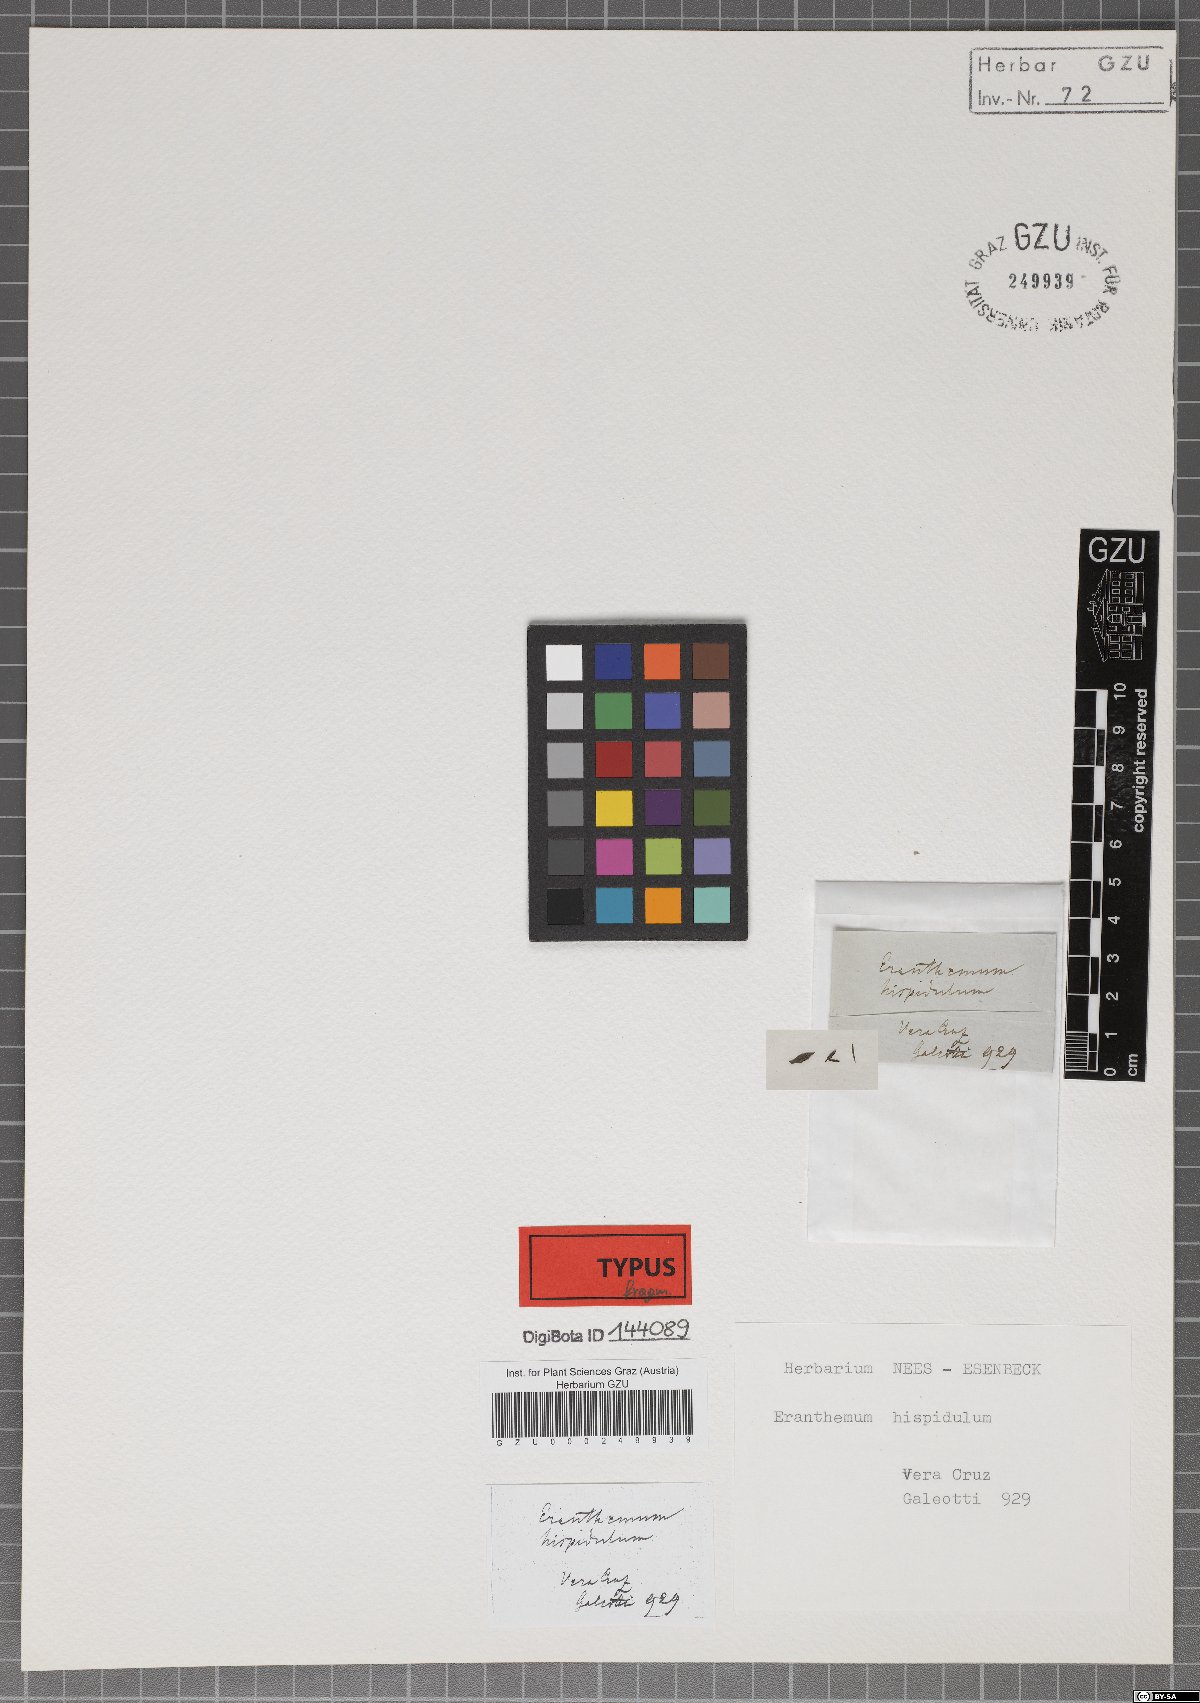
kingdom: Plantae
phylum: Tracheophyta
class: Magnoliopsida
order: Lamiales
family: Acanthaceae
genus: Pseuderanthemum
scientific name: Pseuderanthemum hispidulum
